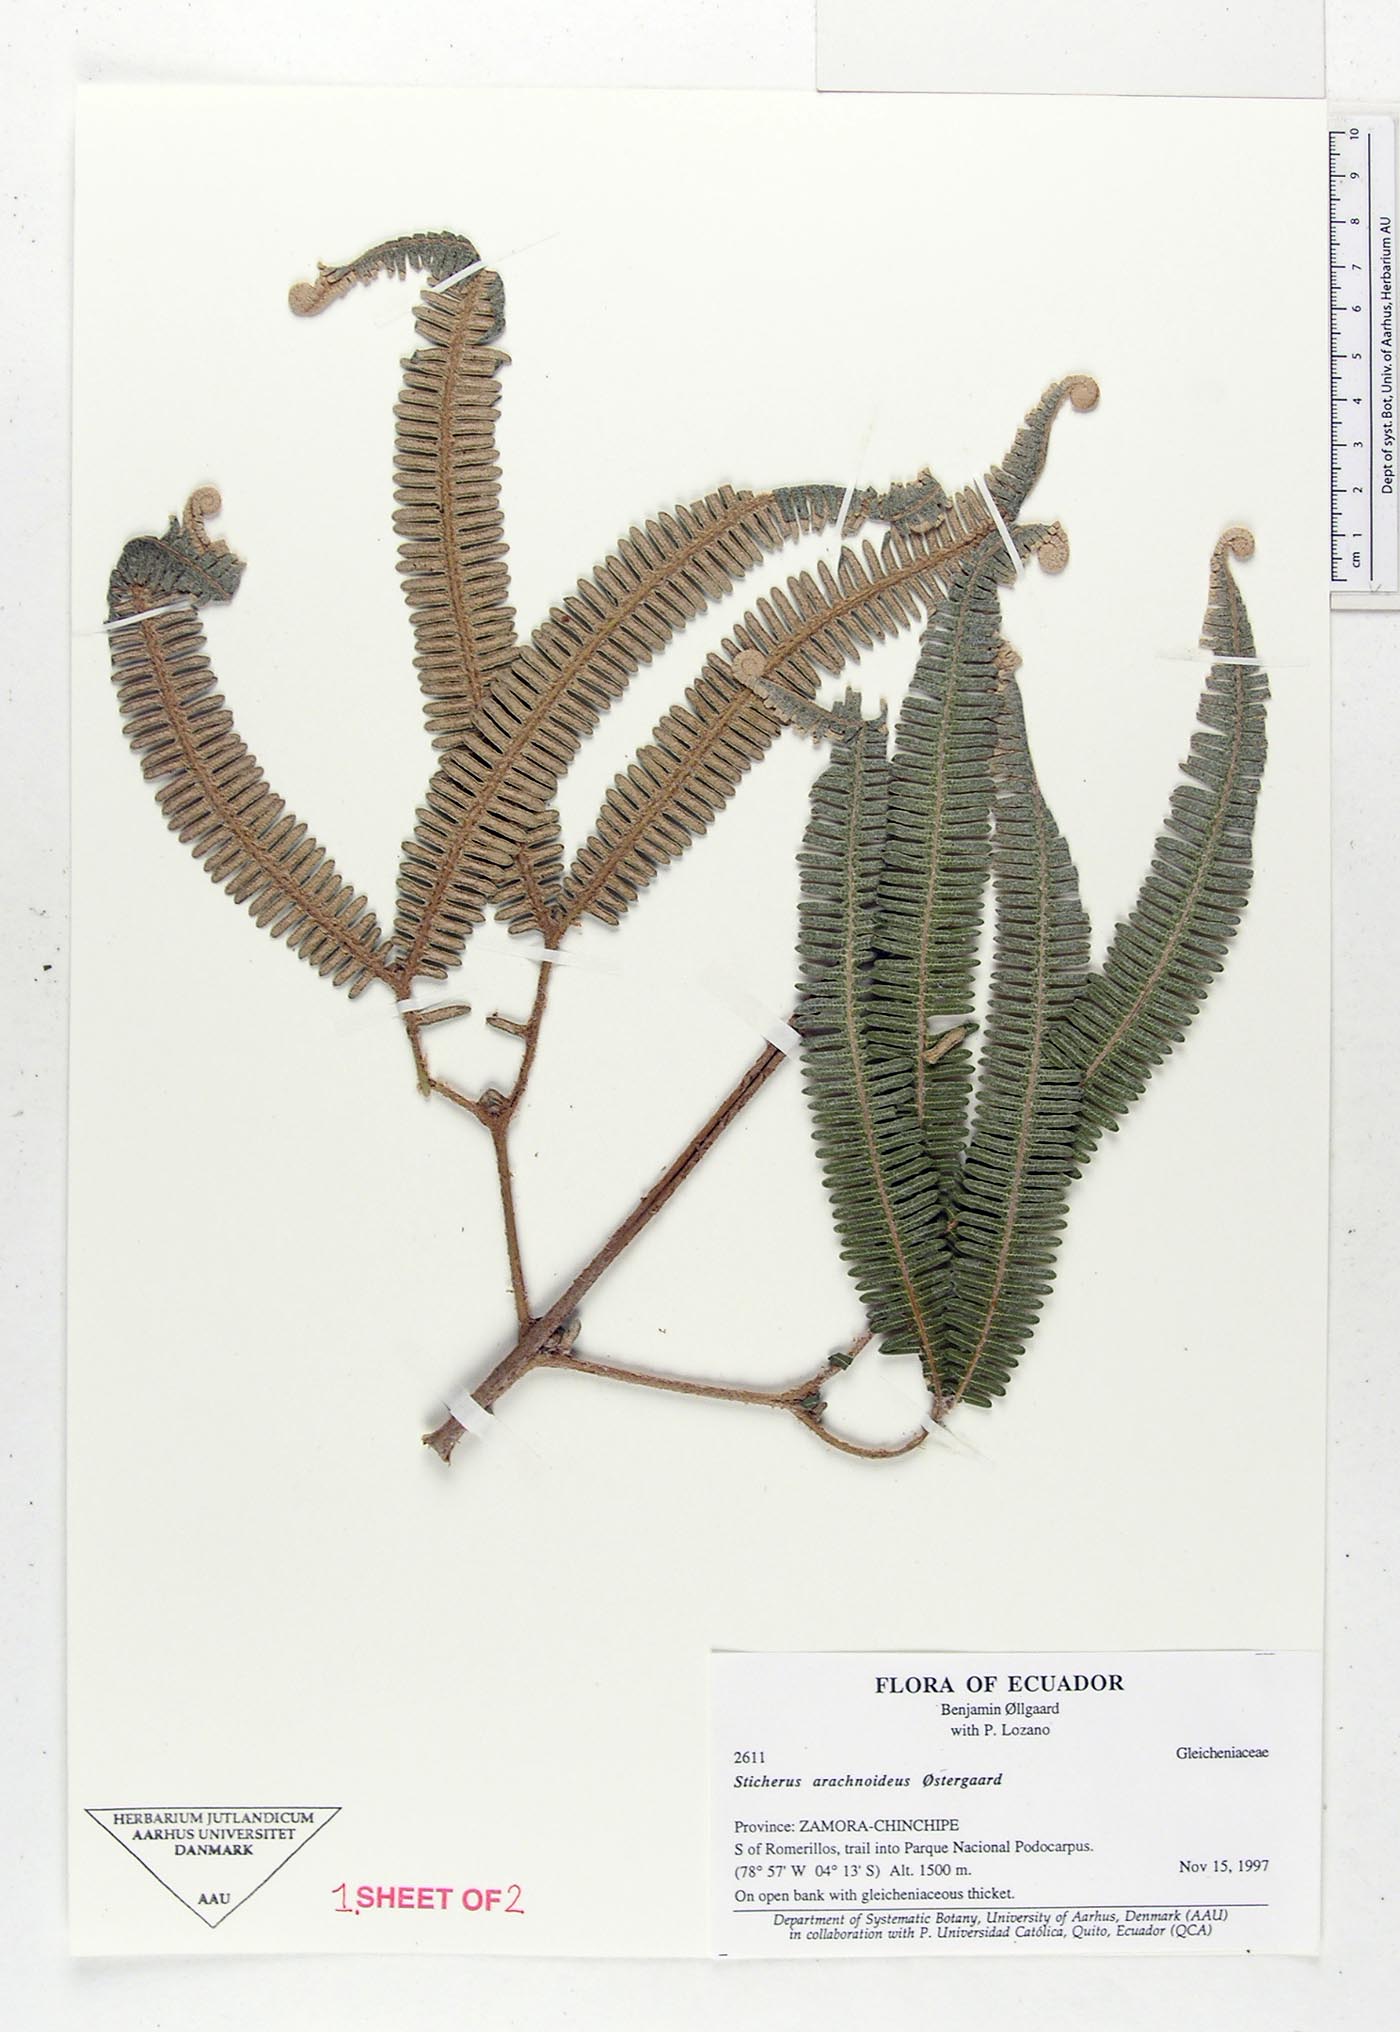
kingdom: Plantae
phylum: Tracheophyta
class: Polypodiopsida
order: Gleicheniales
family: Gleicheniaceae
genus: Sticherus
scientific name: Sticherus arachnoideus
